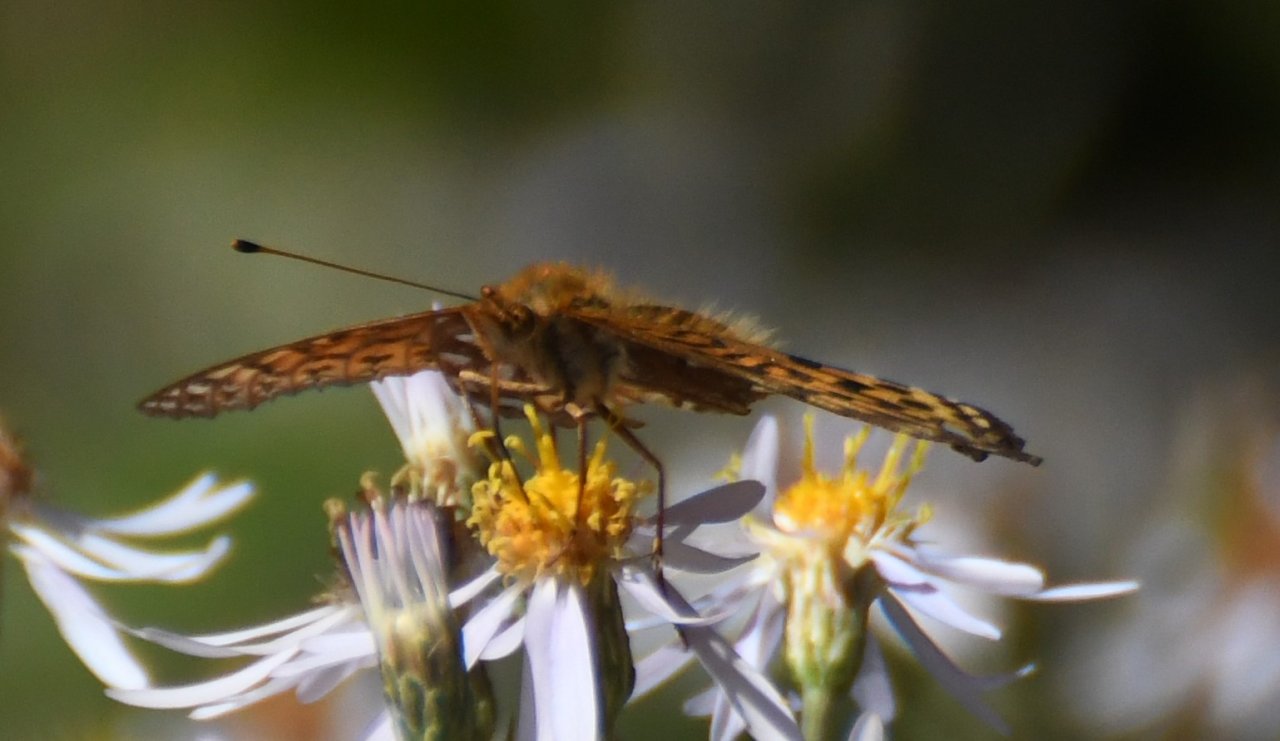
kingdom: Animalia
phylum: Arthropoda
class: Insecta
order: Lepidoptera
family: Nymphalidae
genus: Speyeria
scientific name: Speyeria aphrodite
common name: Aphrodite Fritillary
